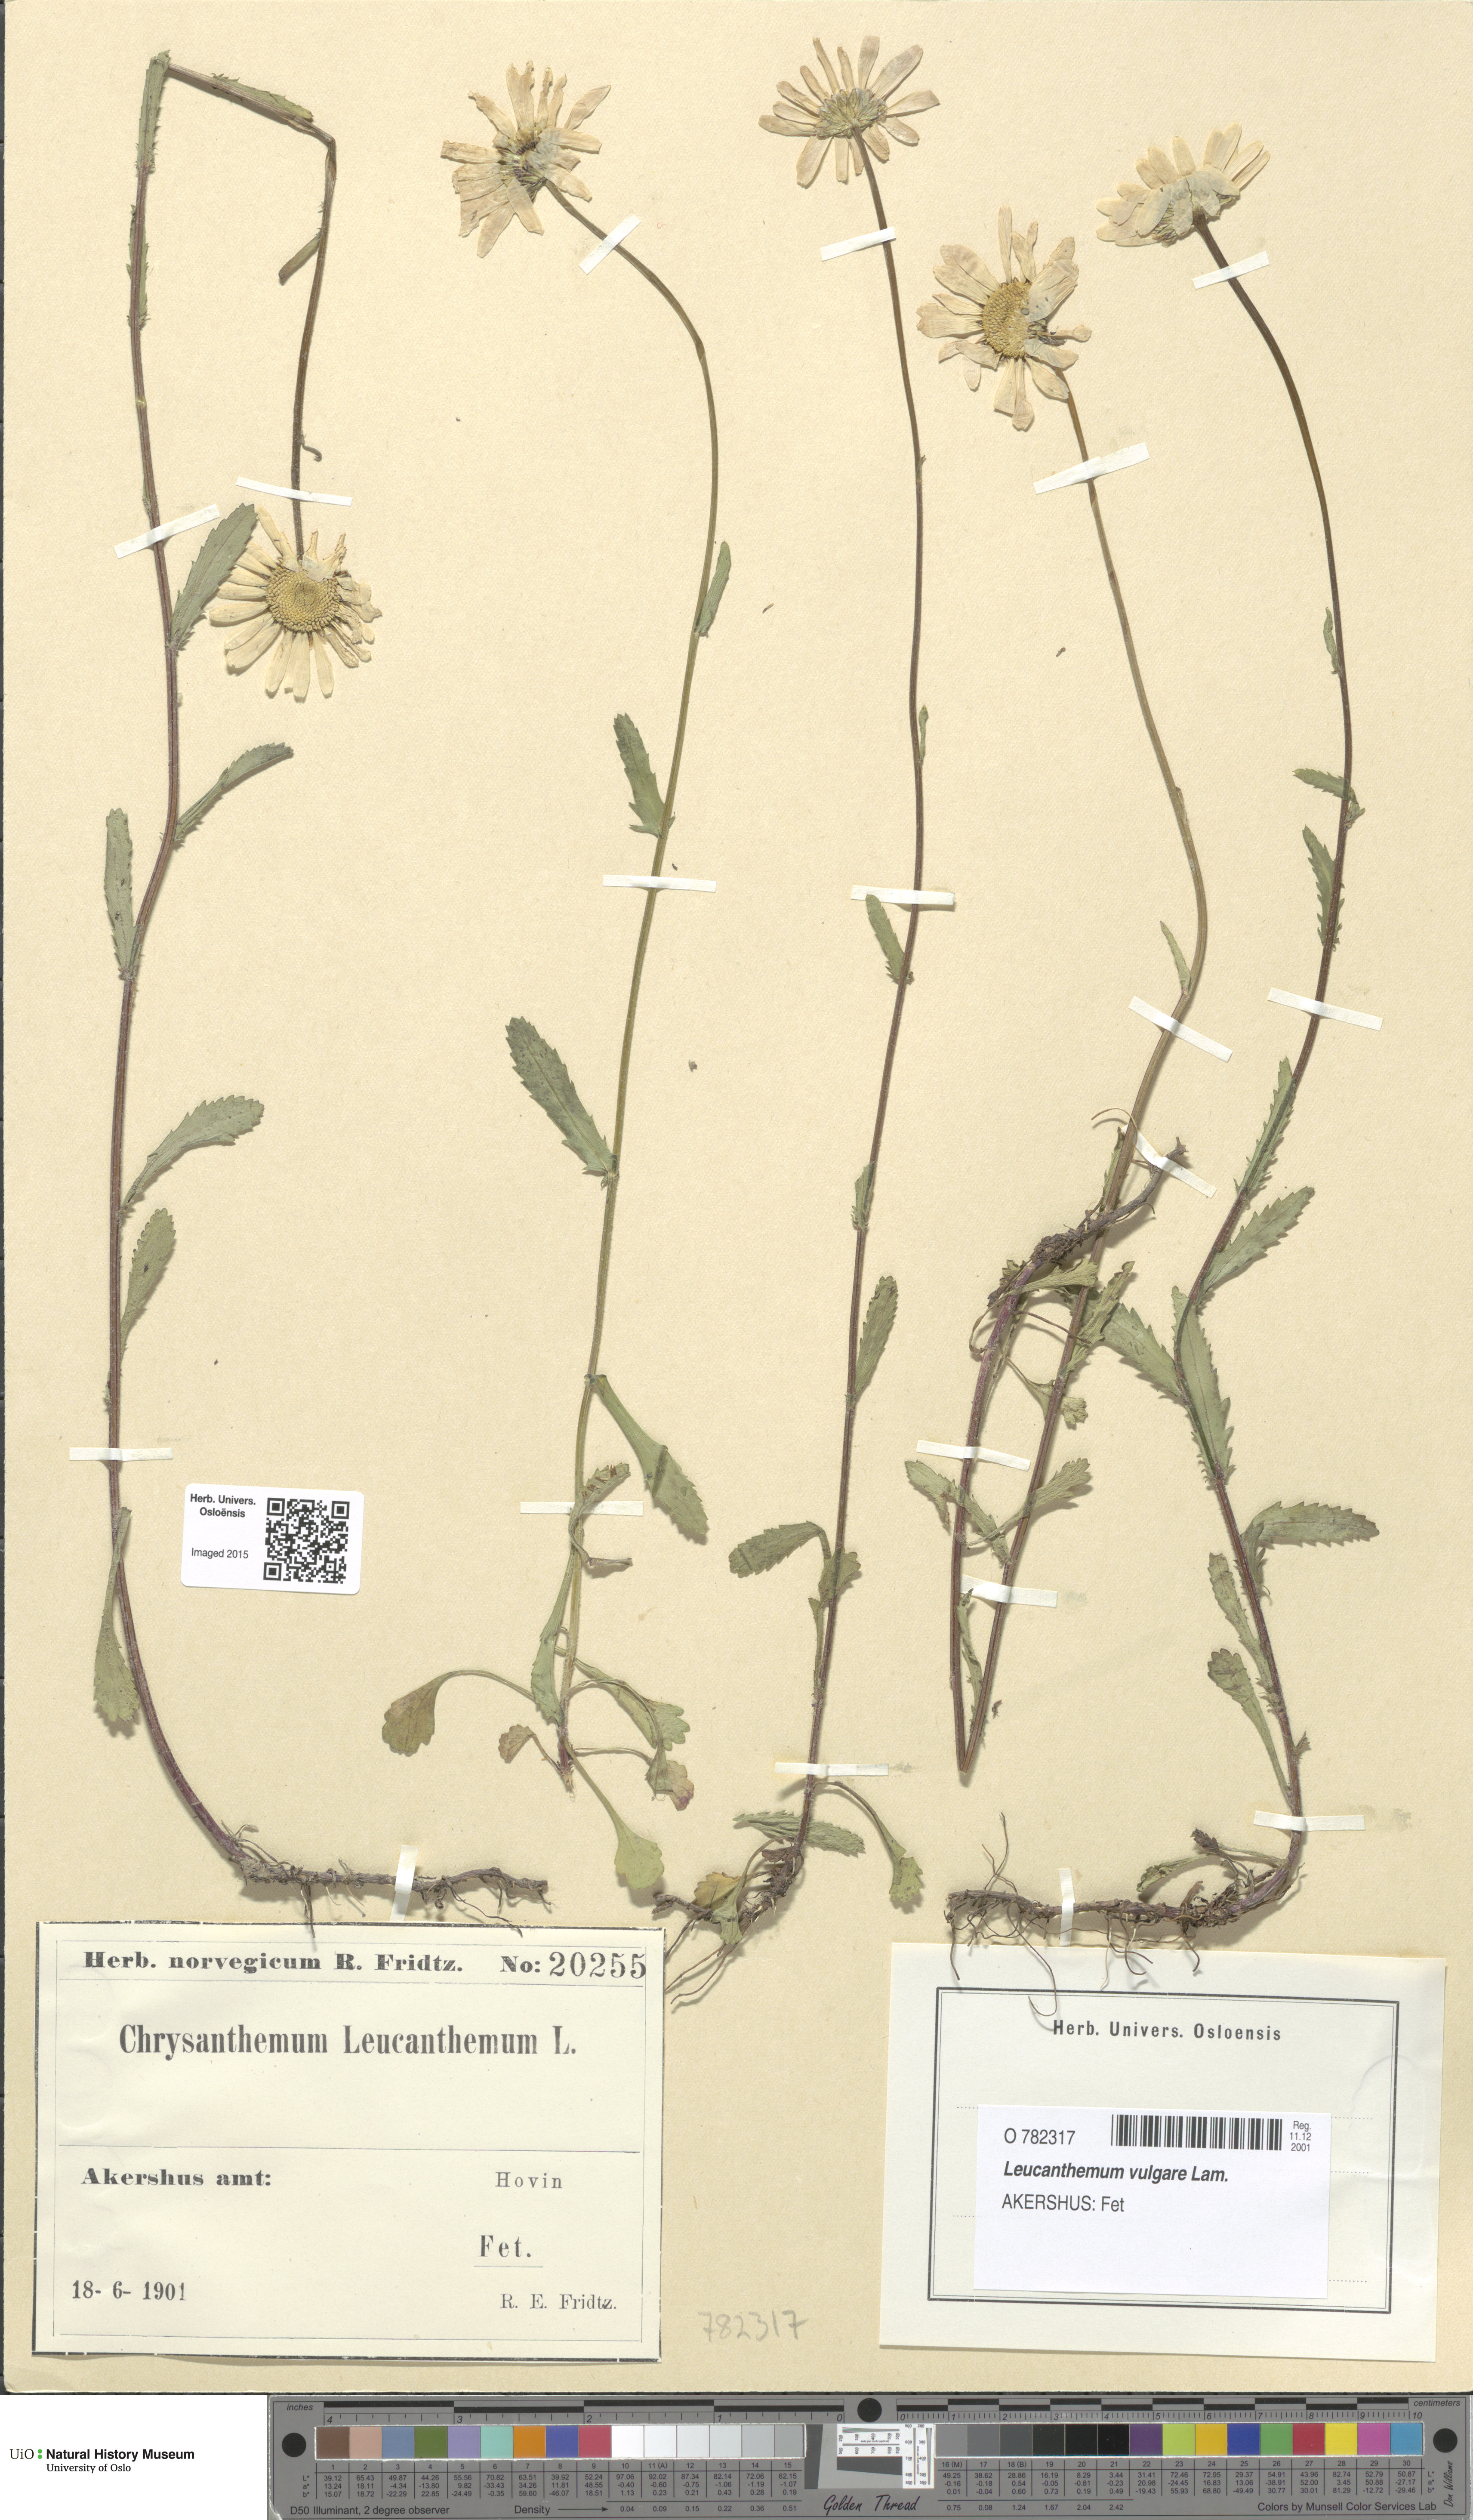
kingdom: Plantae
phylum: Tracheophyta
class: Magnoliopsida
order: Asterales
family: Asteraceae
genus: Leucanthemum
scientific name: Leucanthemum vulgare
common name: Oxeye daisy
